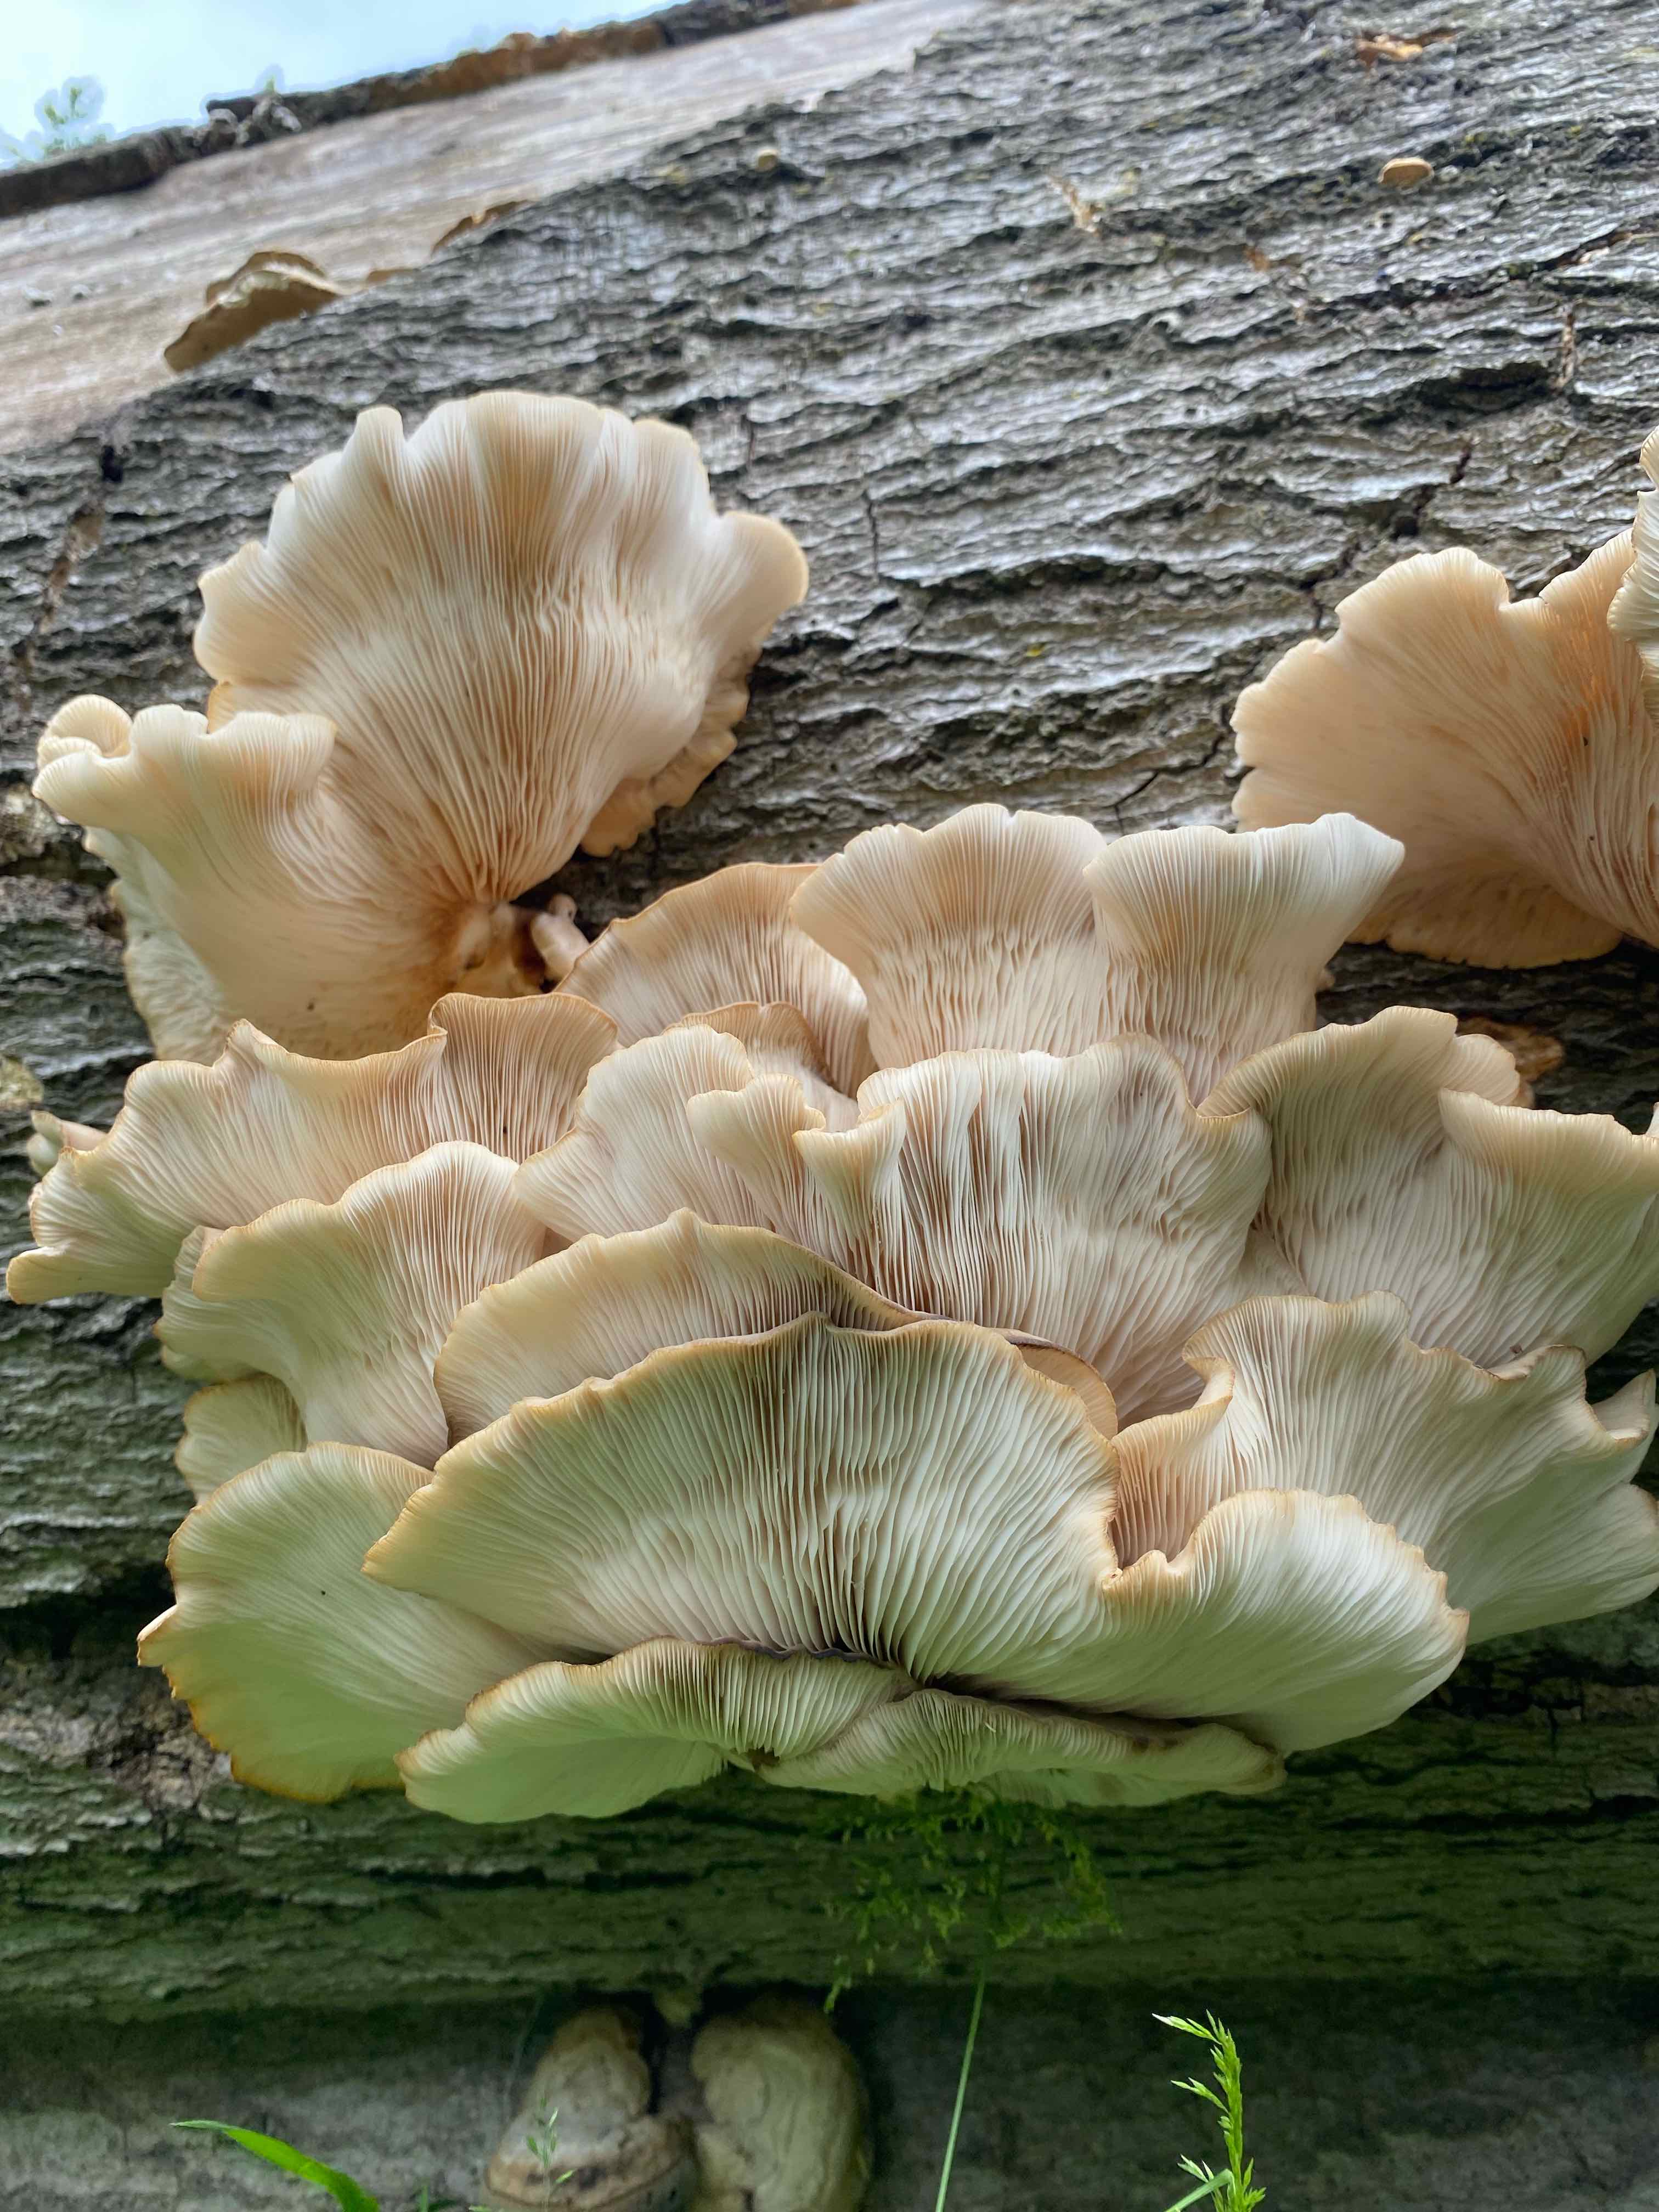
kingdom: Fungi
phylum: Basidiomycota
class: Agaricomycetes
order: Agaricales
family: Pleurotaceae
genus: Pleurotus
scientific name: Pleurotus pulmonarius
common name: sommer-østershat
